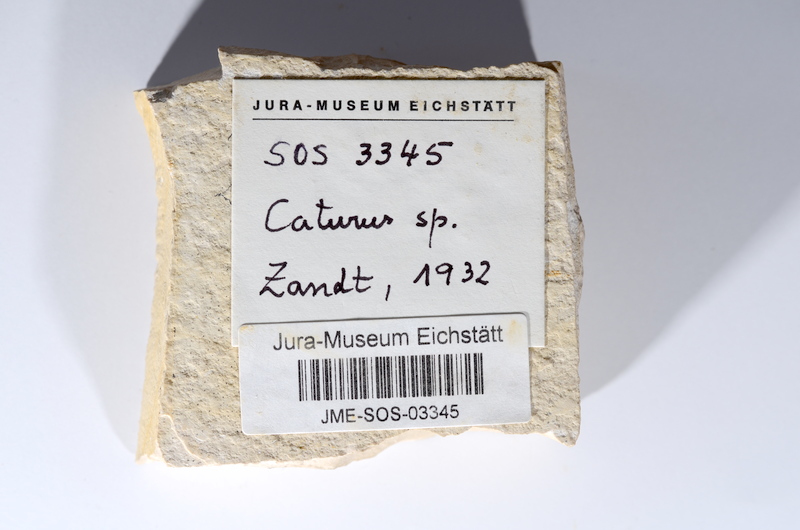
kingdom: Animalia
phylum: Chordata
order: Amiiformes
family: Caturidae
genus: Caturus
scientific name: Caturus
